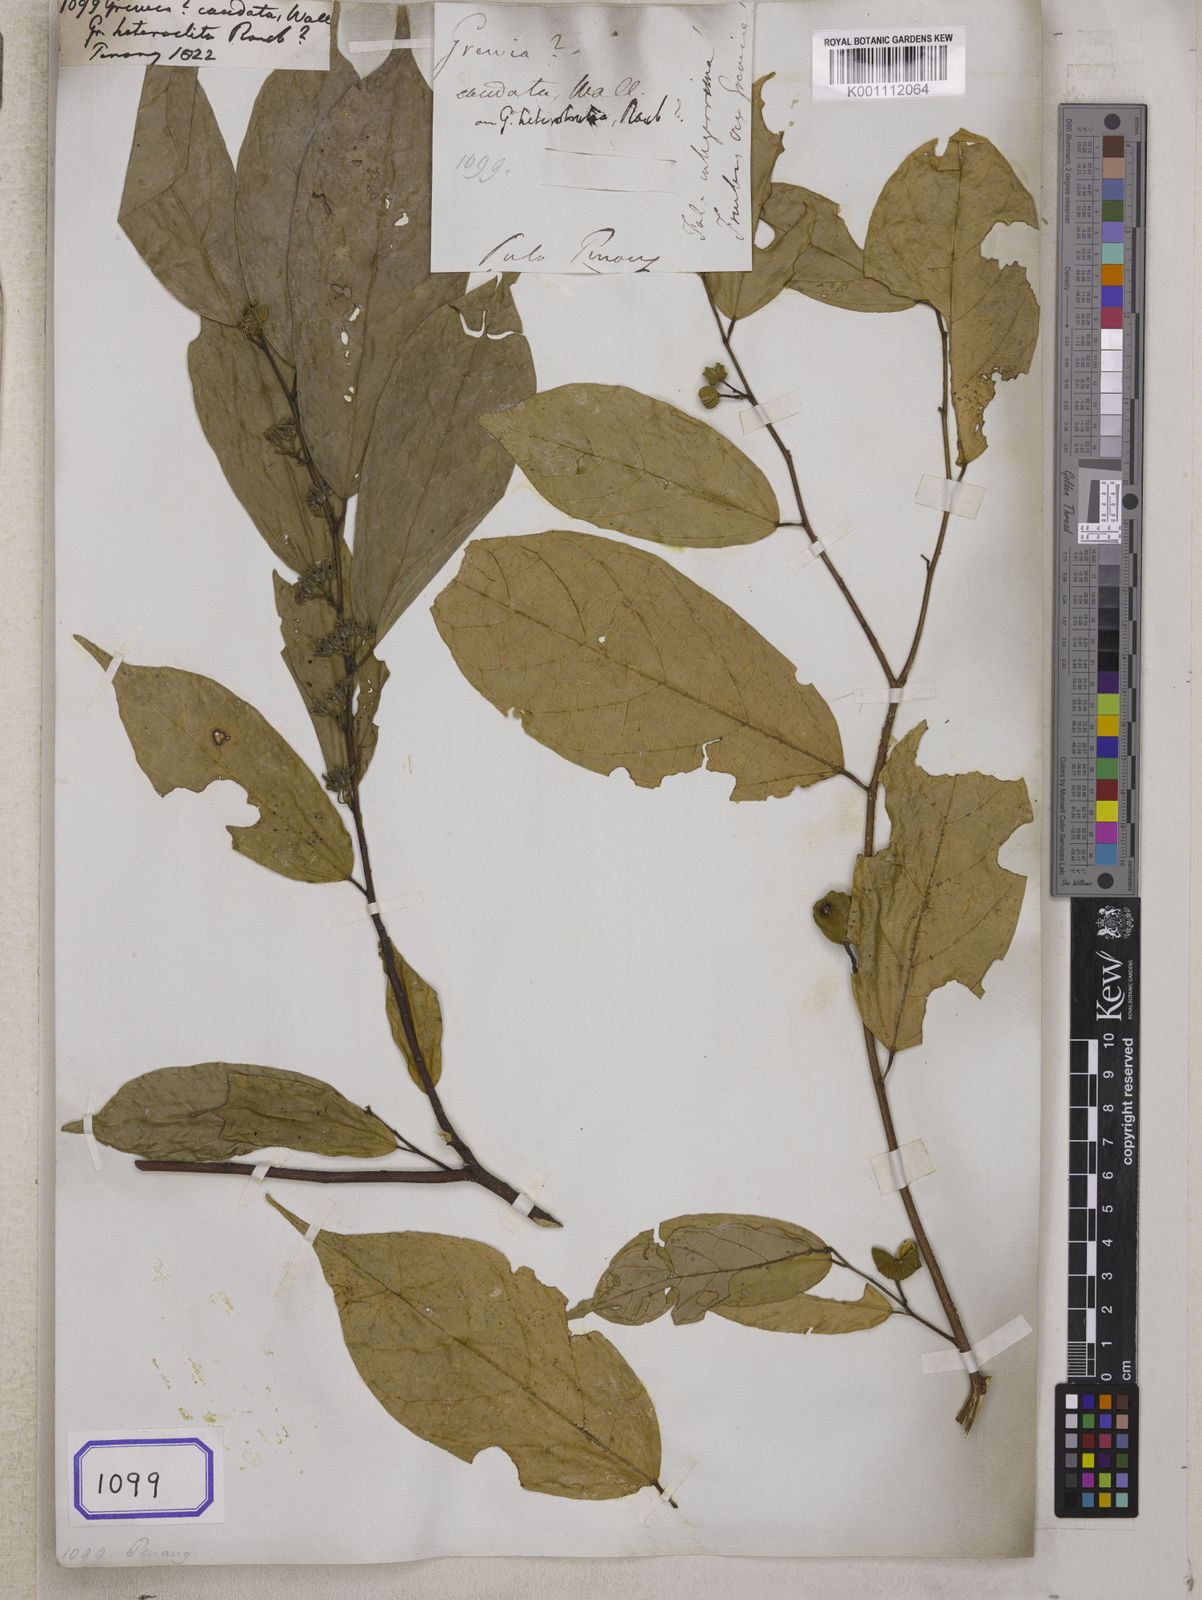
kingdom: Plantae
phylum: Tracheophyta
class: Magnoliopsida
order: Malvales
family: Malvaceae
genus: Grewia
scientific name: Grewia
